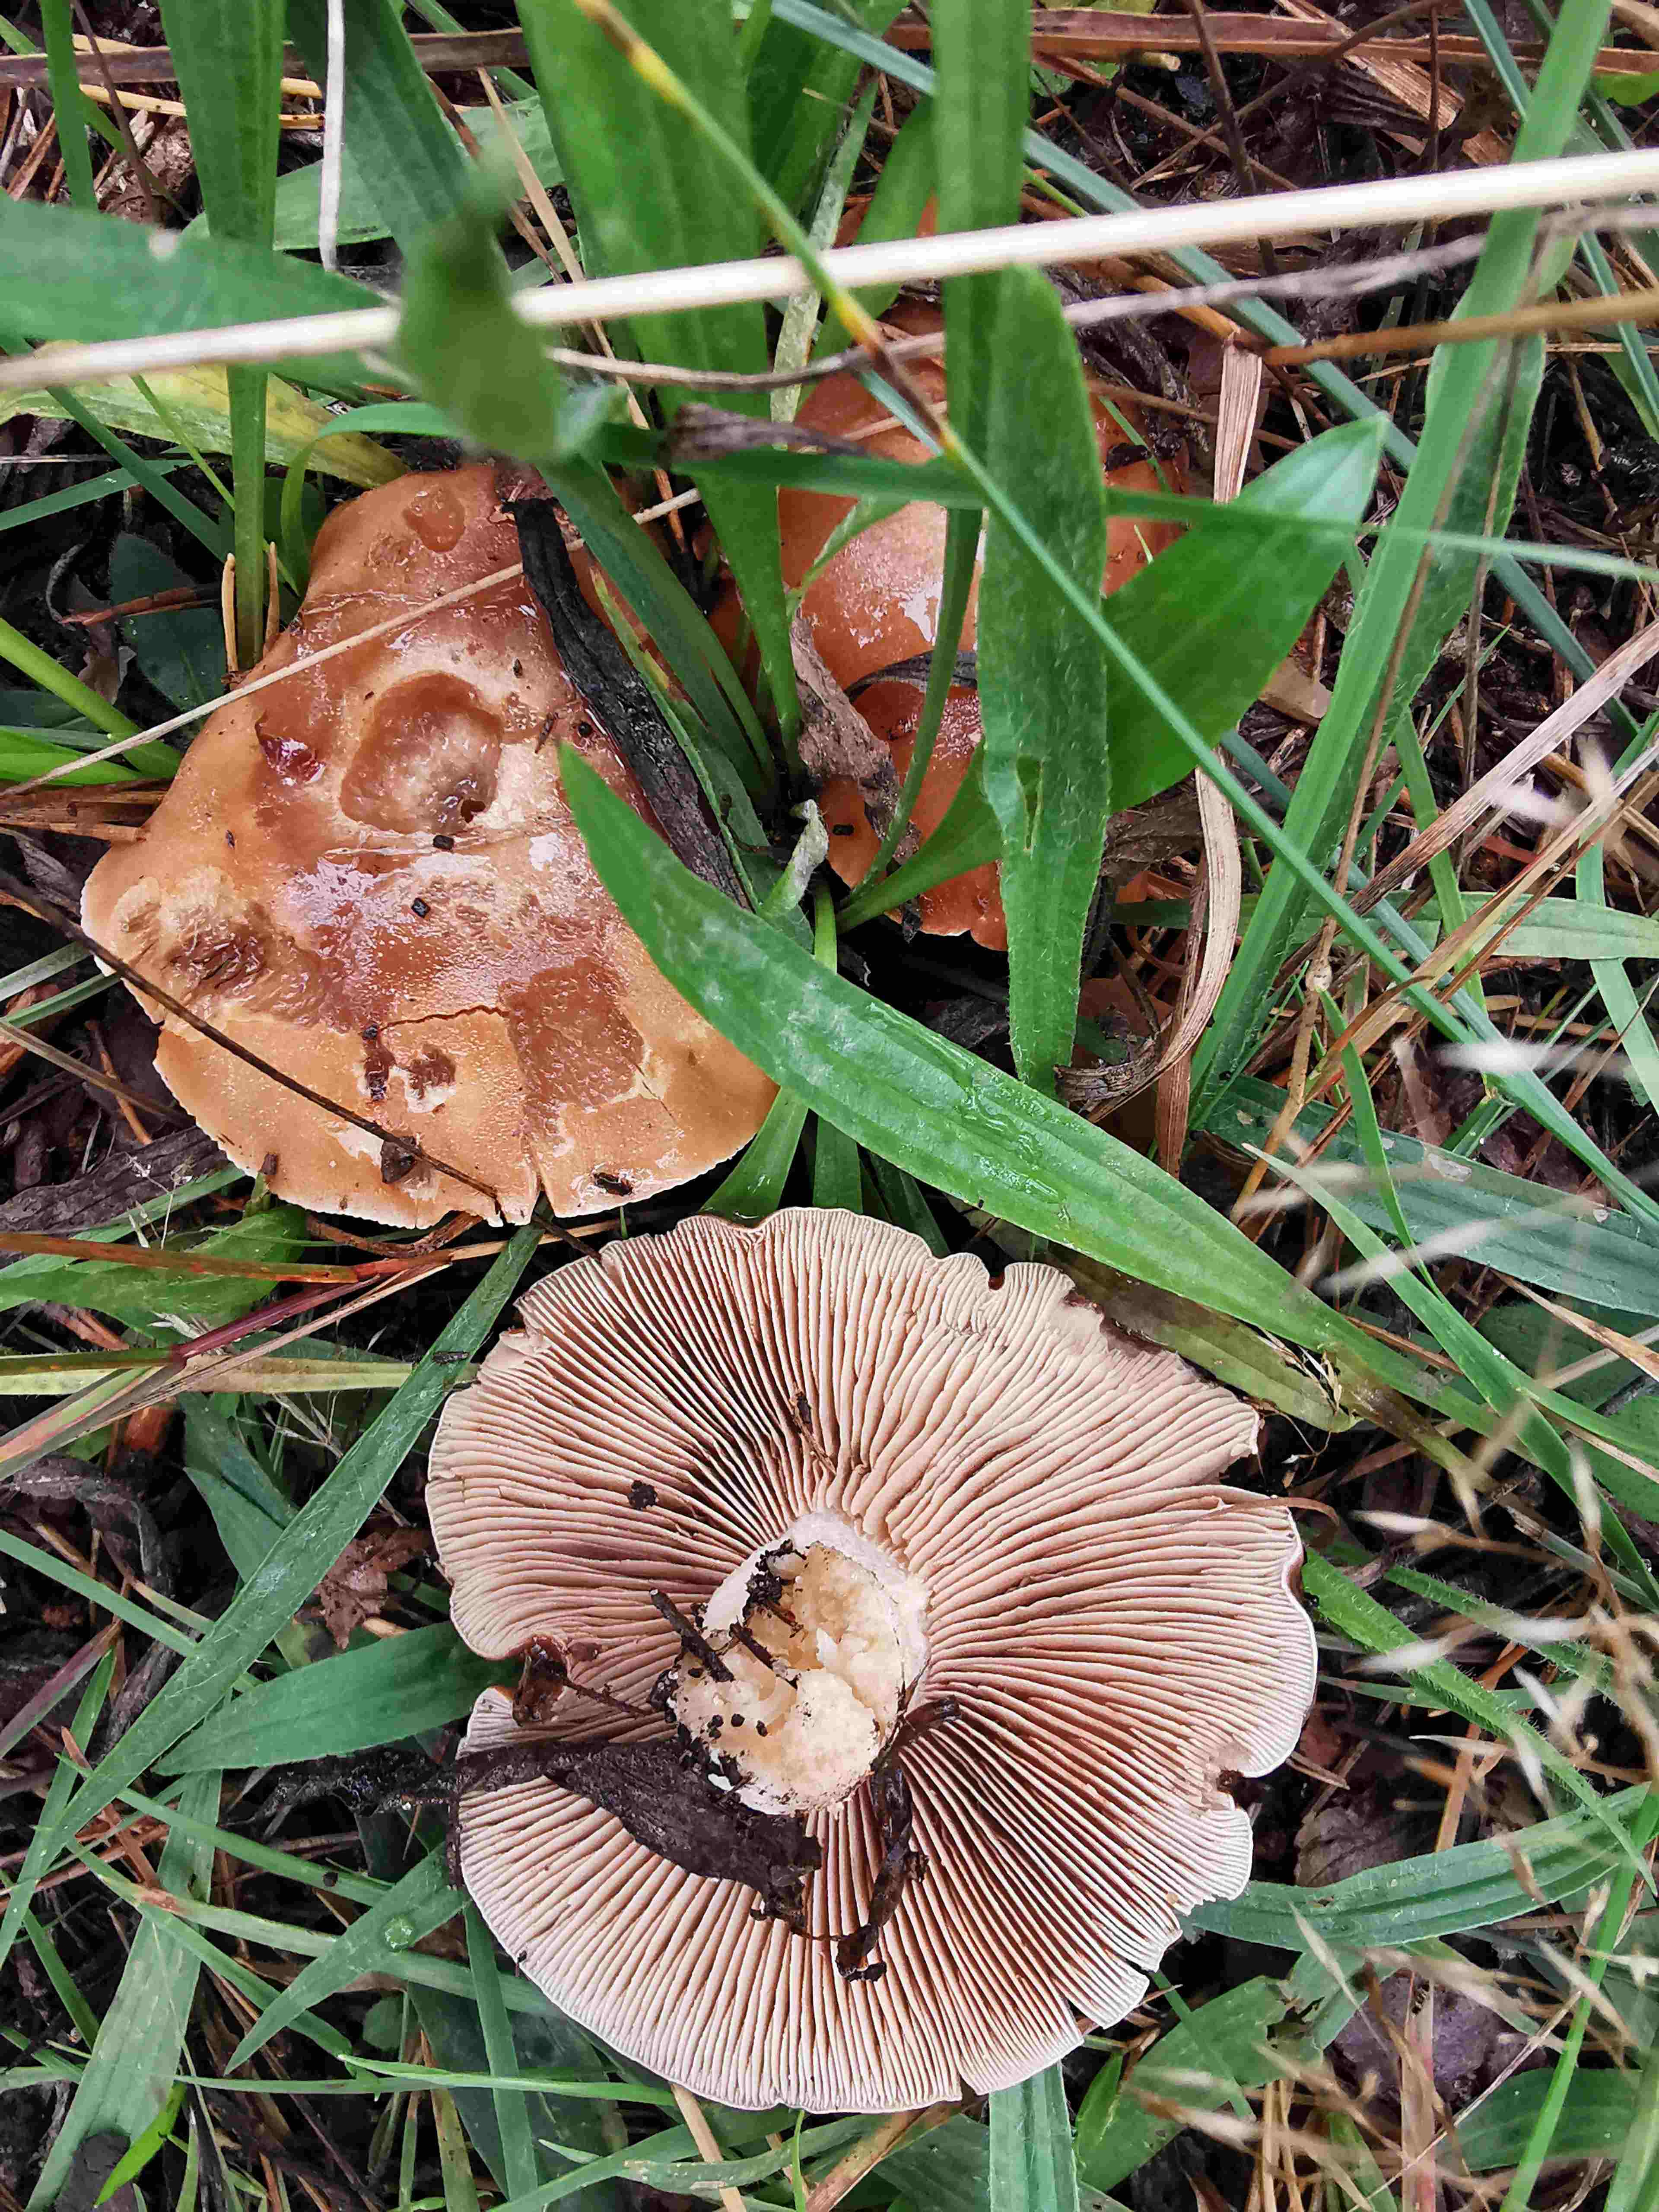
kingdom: Fungi
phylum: Basidiomycota
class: Agaricomycetes
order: Agaricales
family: Amanitaceae
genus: Amanita
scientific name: Amanita rubescens
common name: rødmende fluesvamp
